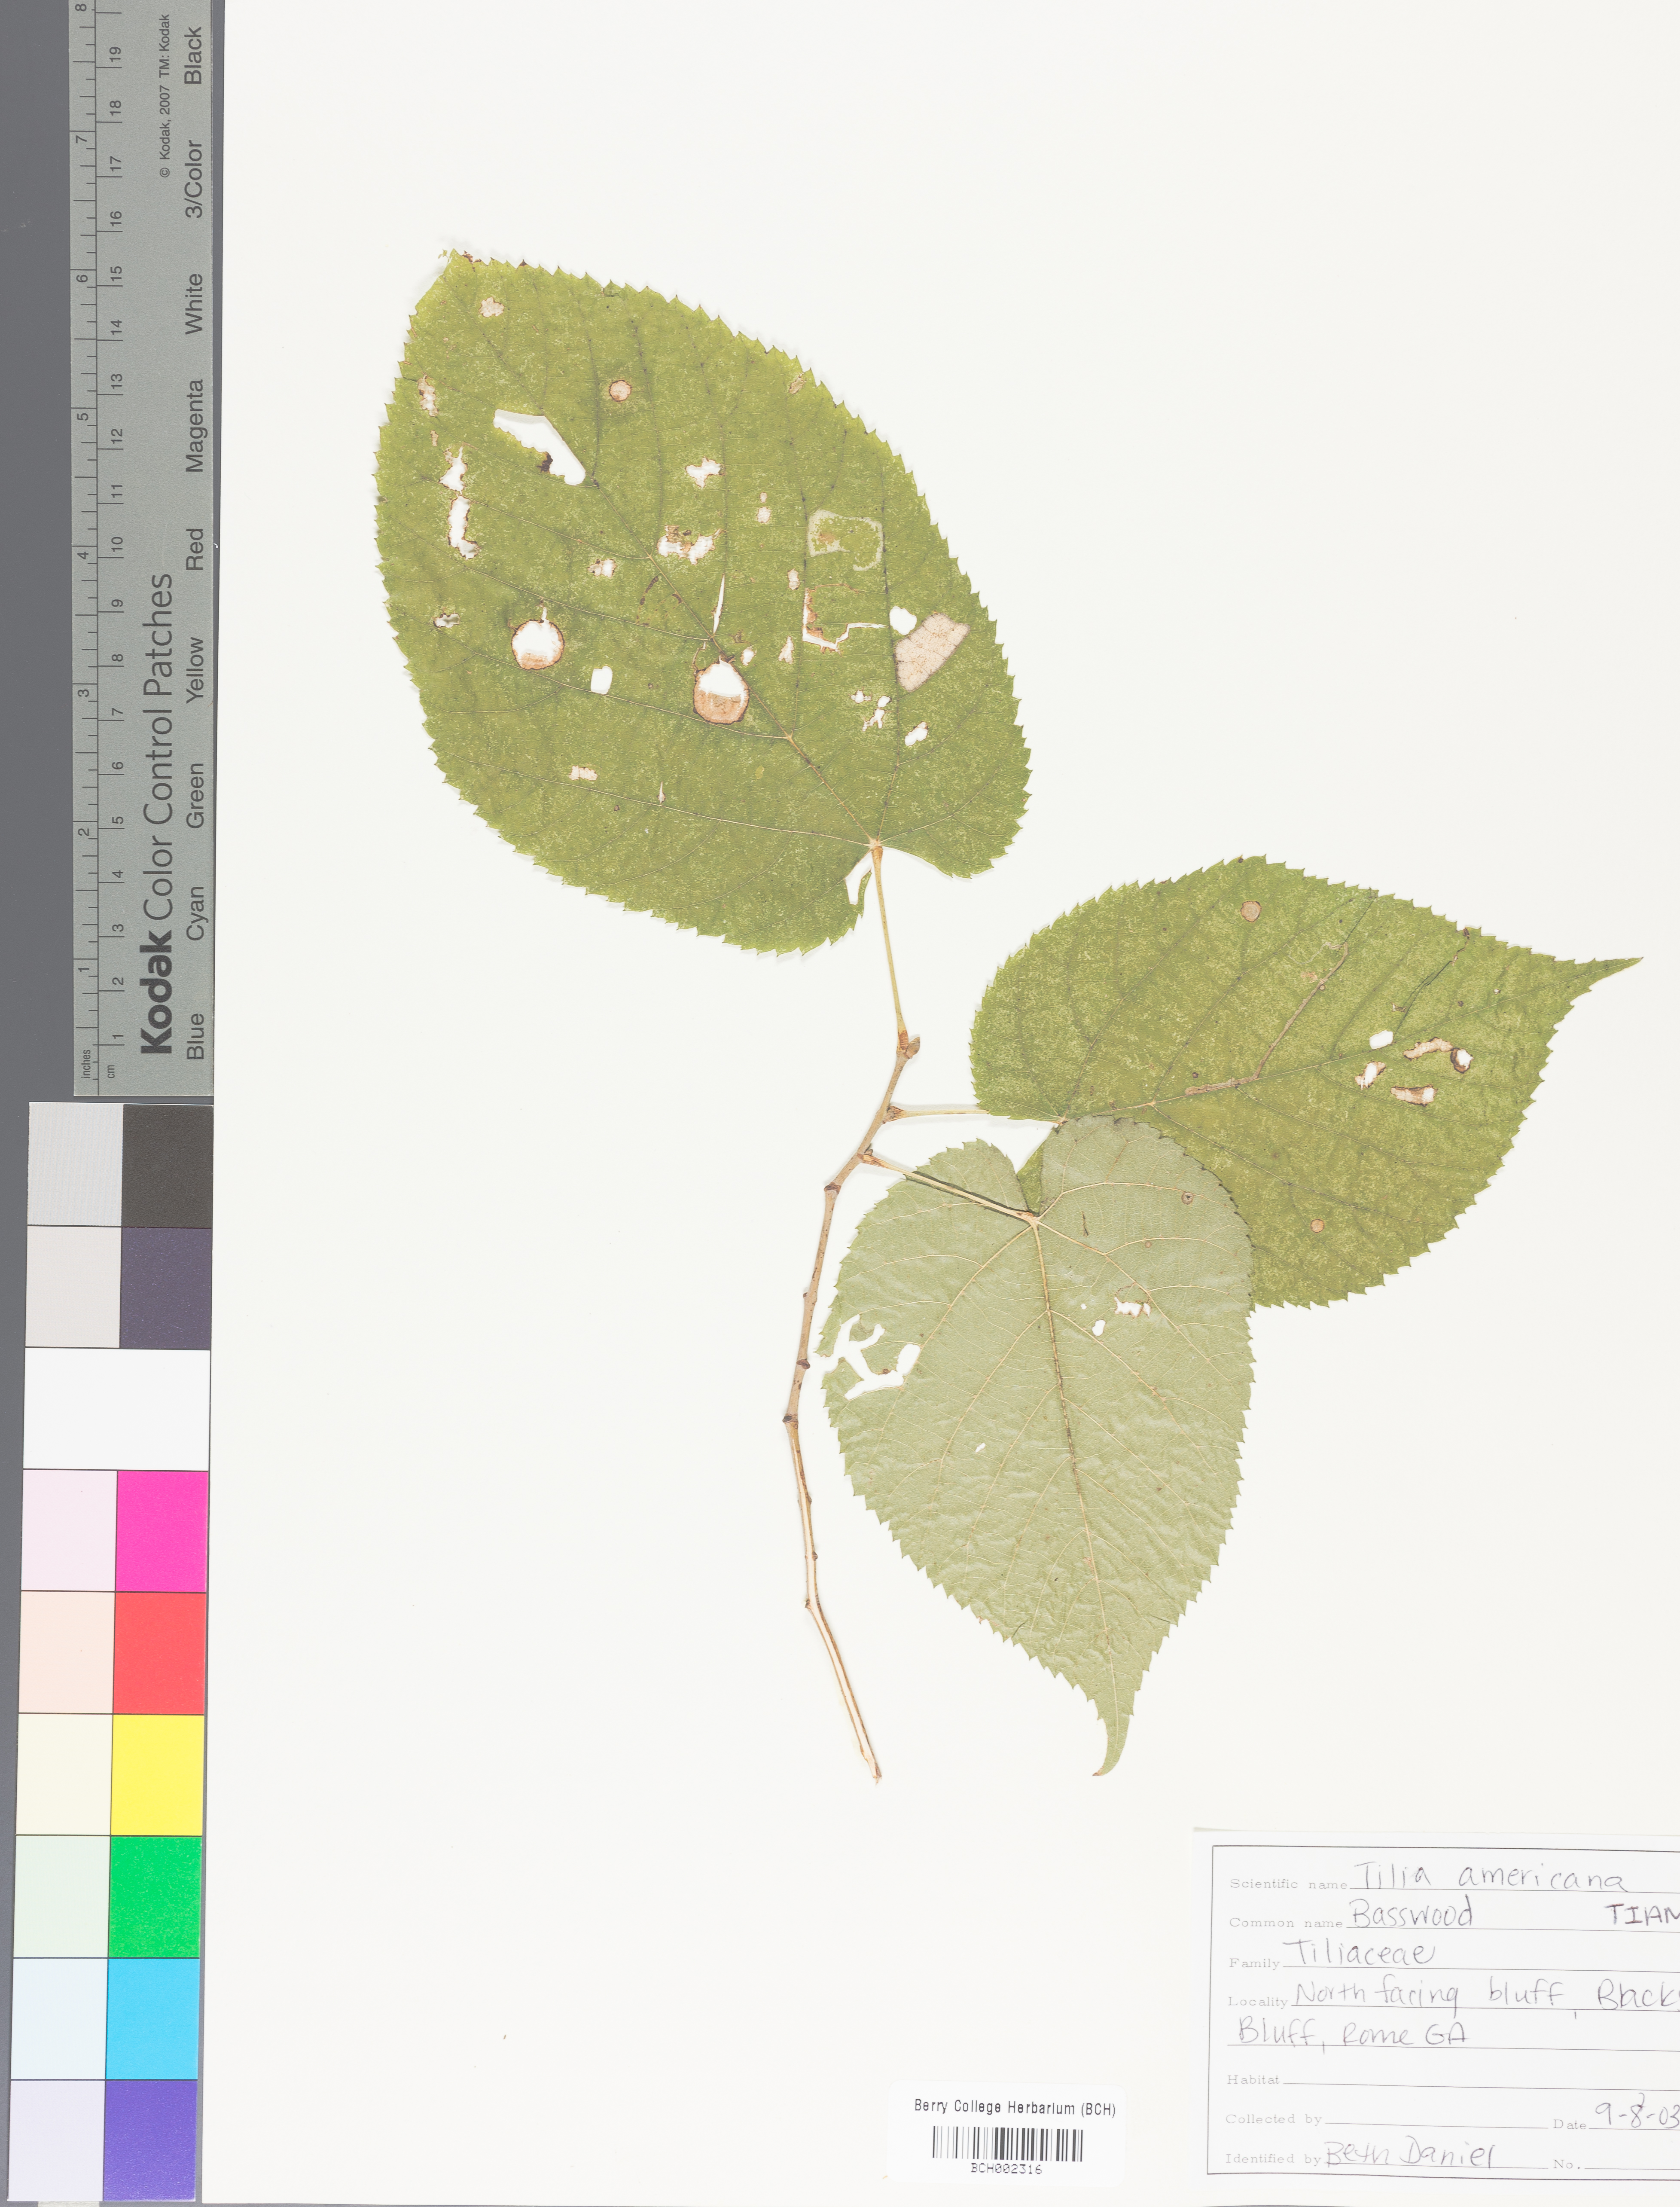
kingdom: Plantae
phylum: Tracheophyta
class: Magnoliopsida
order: Malvales
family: Malvaceae
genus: Tilia
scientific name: Tilia americana
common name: Basswood
